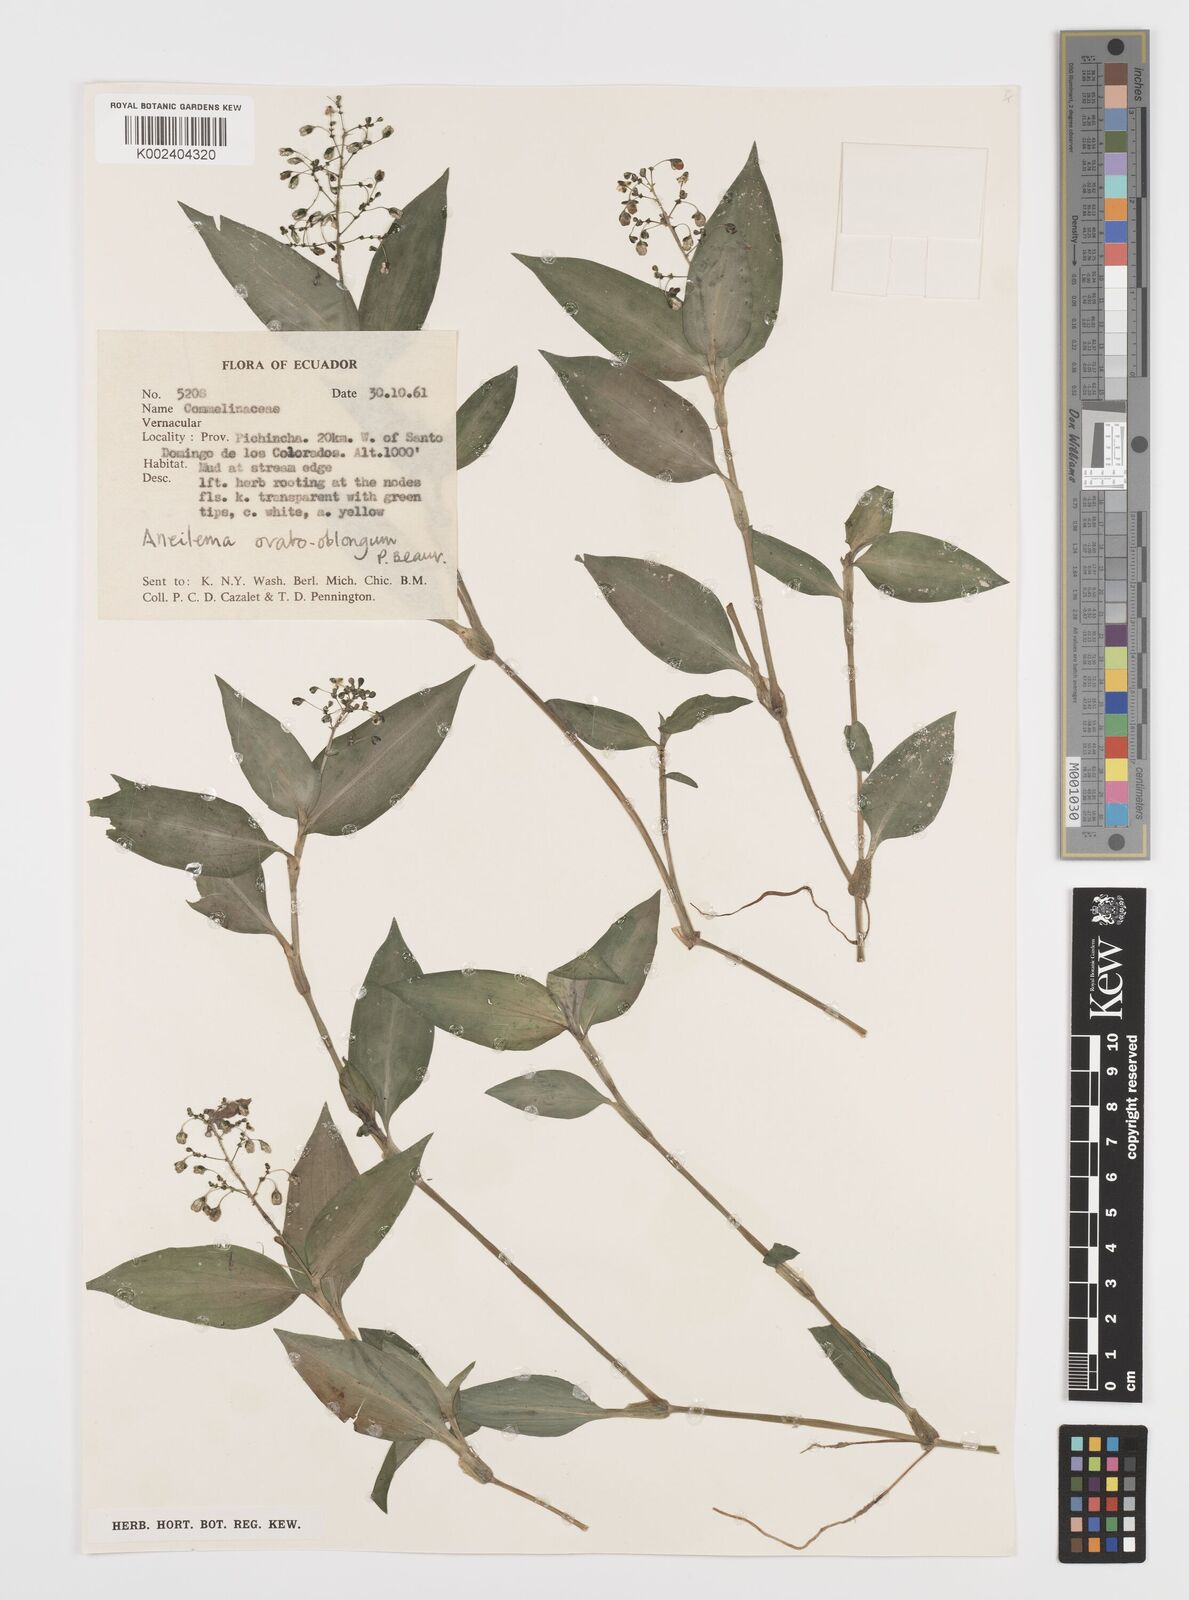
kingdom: Plantae
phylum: Tracheophyta
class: Liliopsida
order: Commelinales
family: Commelinaceae
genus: Aneilema
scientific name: Aneilema umbrosum
